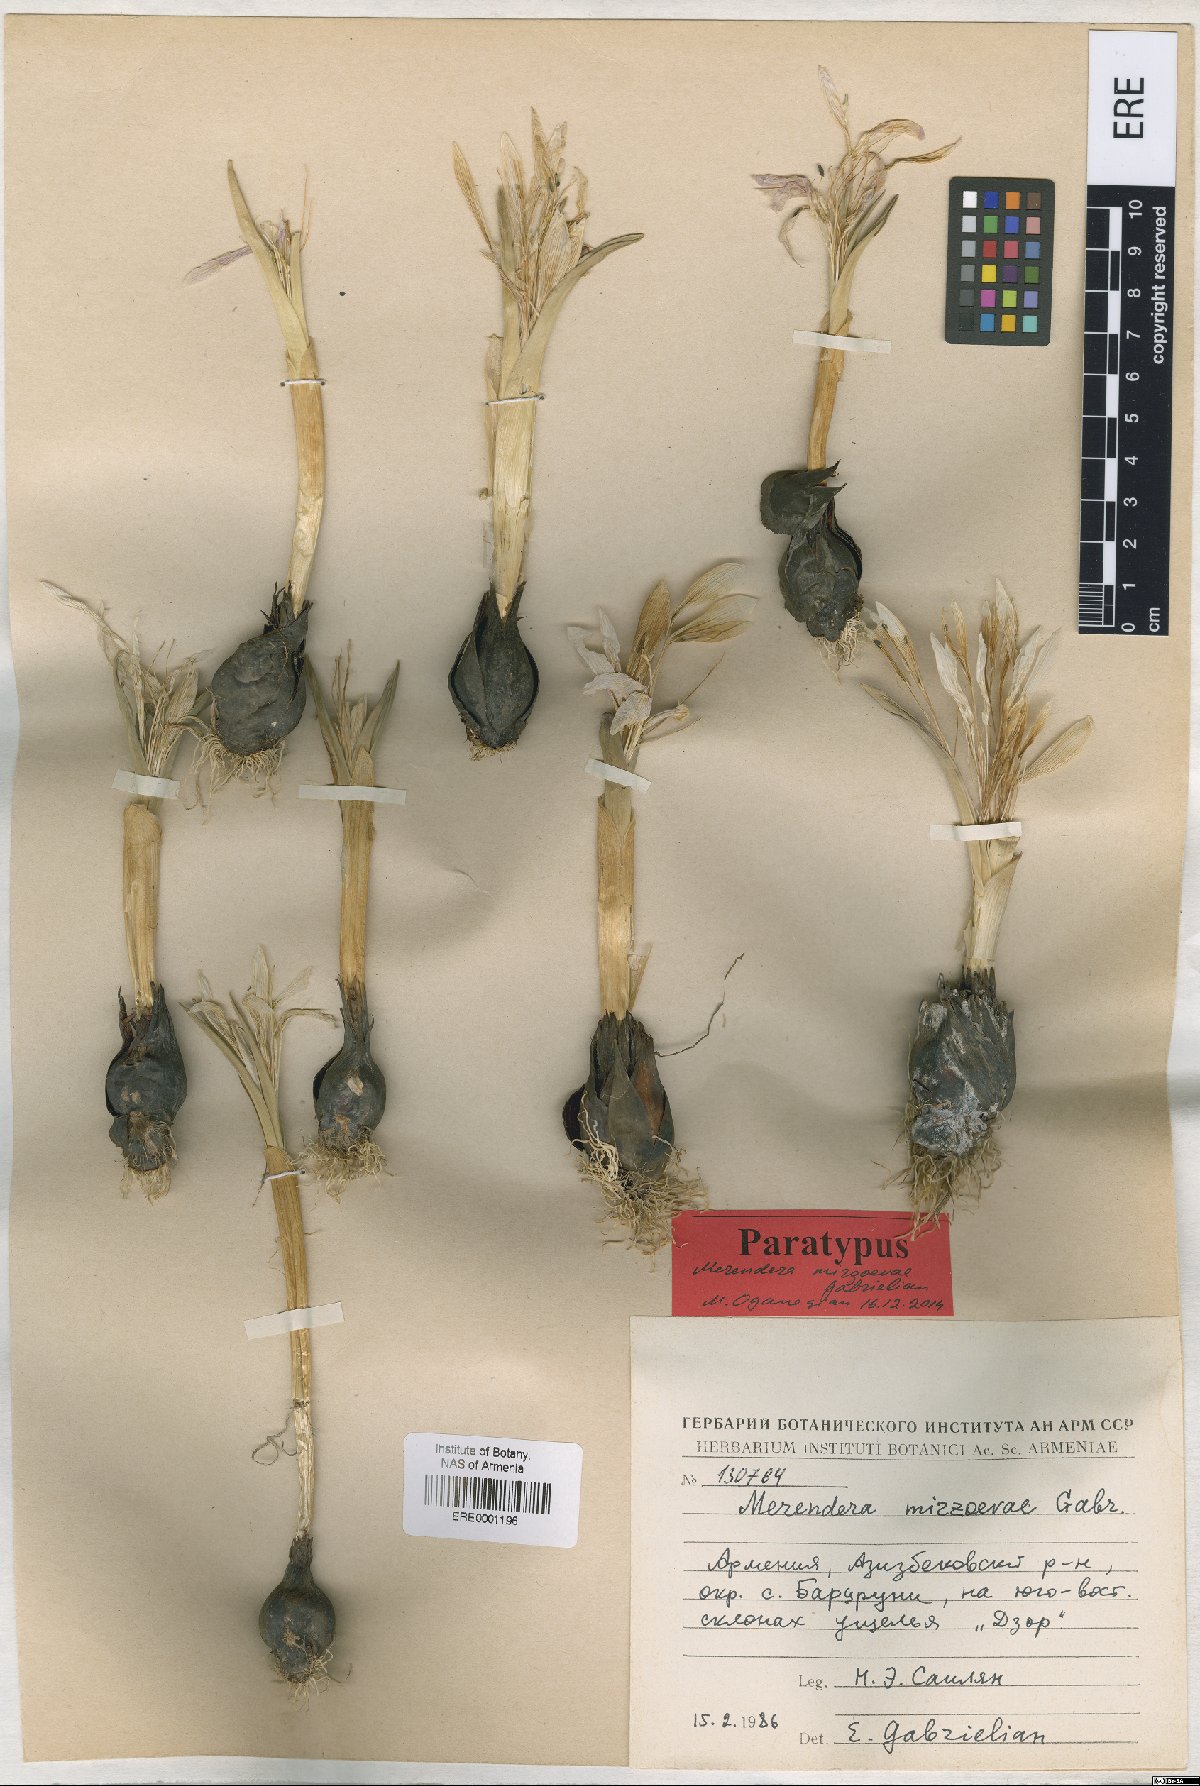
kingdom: Plantae
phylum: Tracheophyta
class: Liliopsida
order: Liliales
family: Colchicaceae
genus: Colchicum
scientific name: Colchicum trigynum
